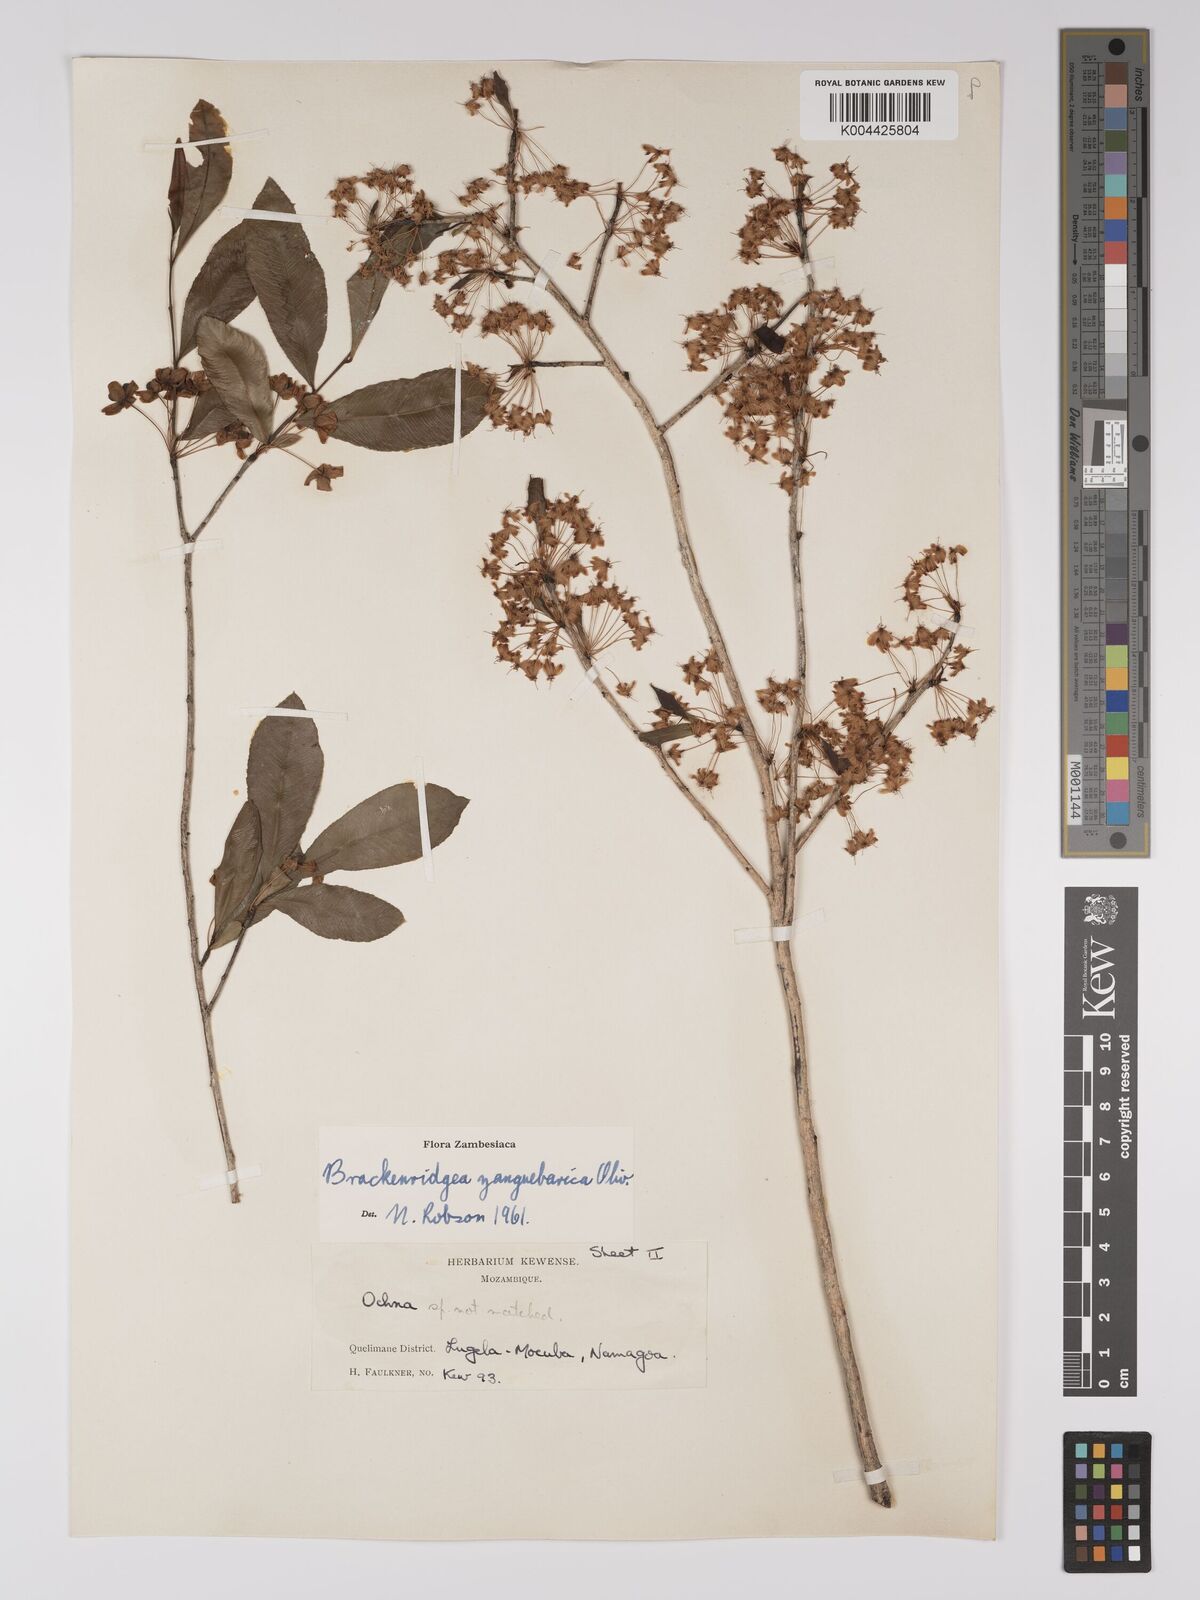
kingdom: Plantae
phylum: Tracheophyta
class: Magnoliopsida
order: Malpighiales
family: Ochnaceae
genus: Brackenridgea
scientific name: Brackenridgea zanguebarica
